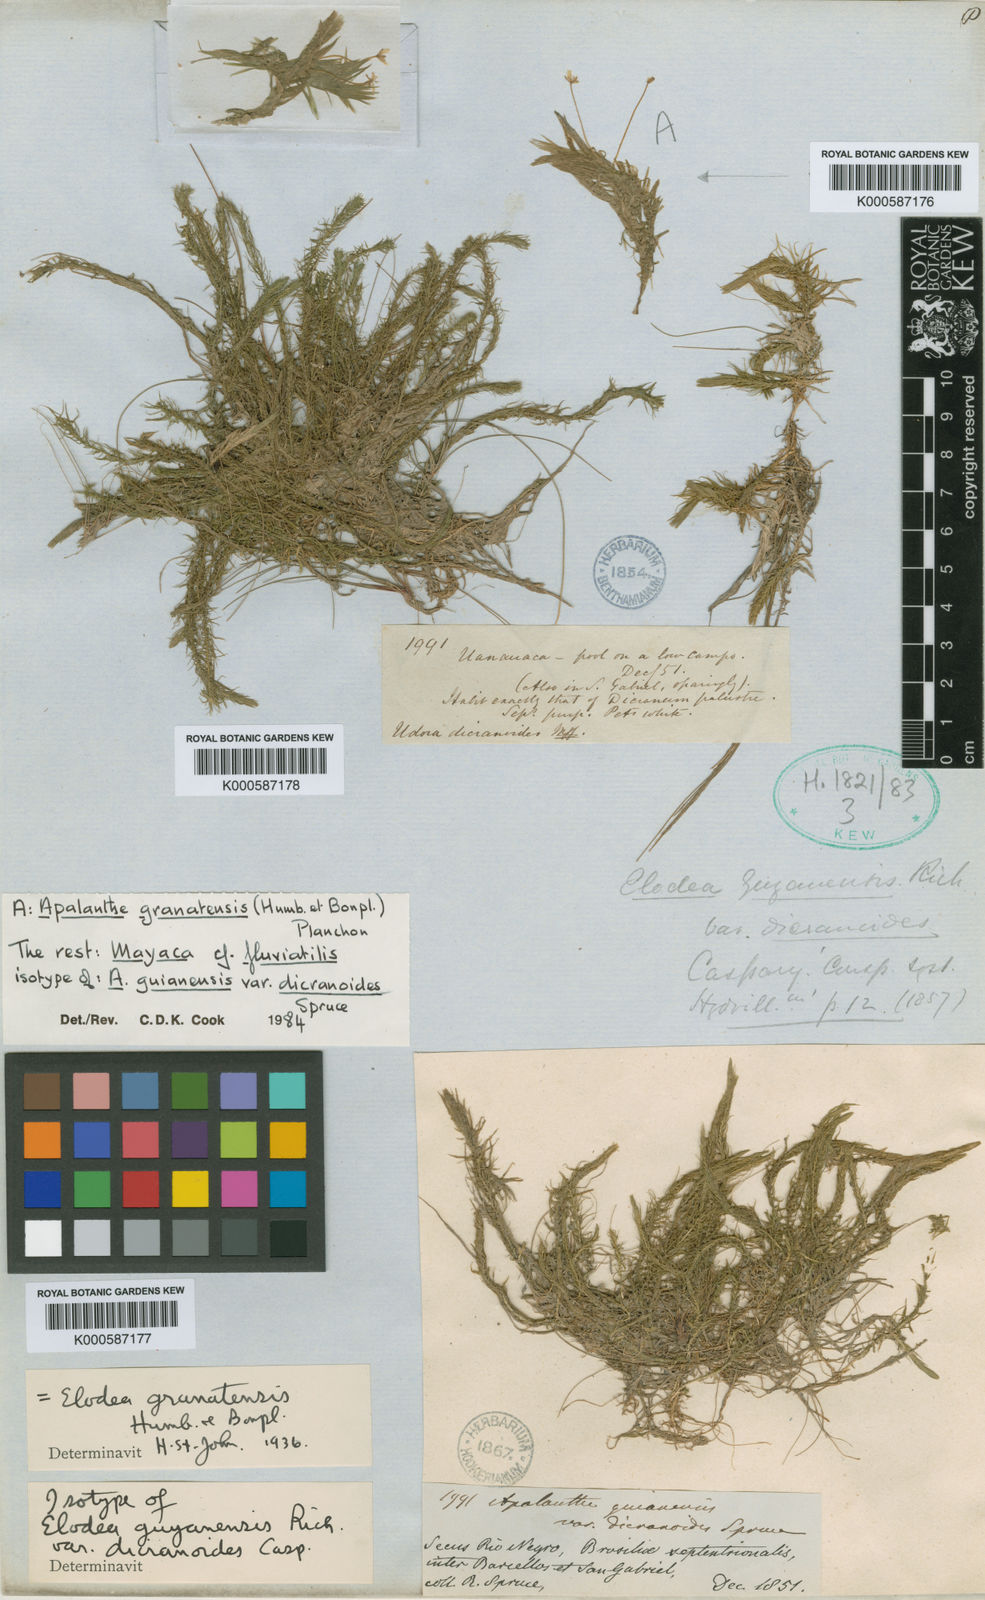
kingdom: Plantae
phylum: Tracheophyta
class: Liliopsida
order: Alismatales
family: Hydrocharitaceae
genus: Elodea
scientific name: Elodea granatensis
